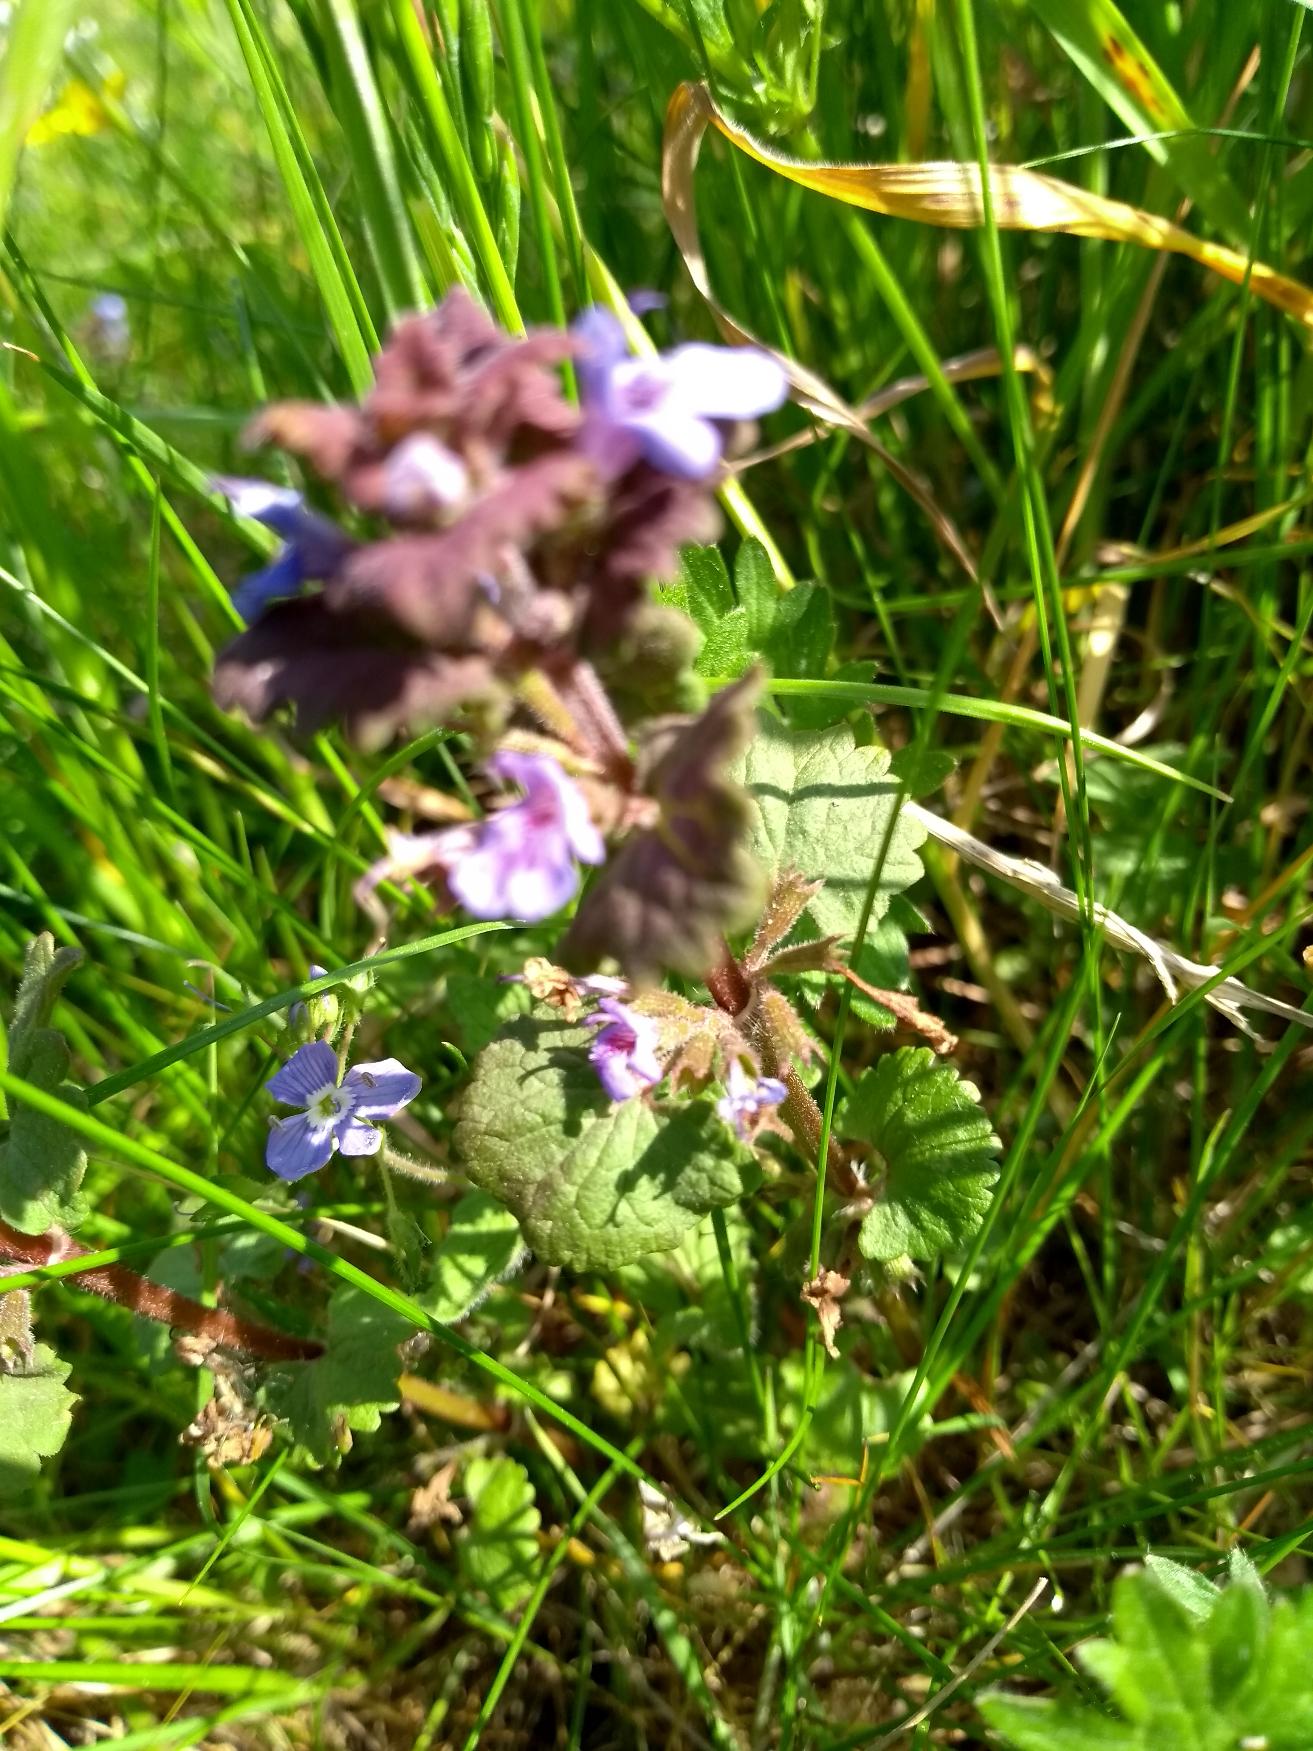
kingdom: Plantae
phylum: Tracheophyta
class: Magnoliopsida
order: Lamiales
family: Lamiaceae
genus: Glechoma
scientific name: Glechoma hederacea
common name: Korsknap
